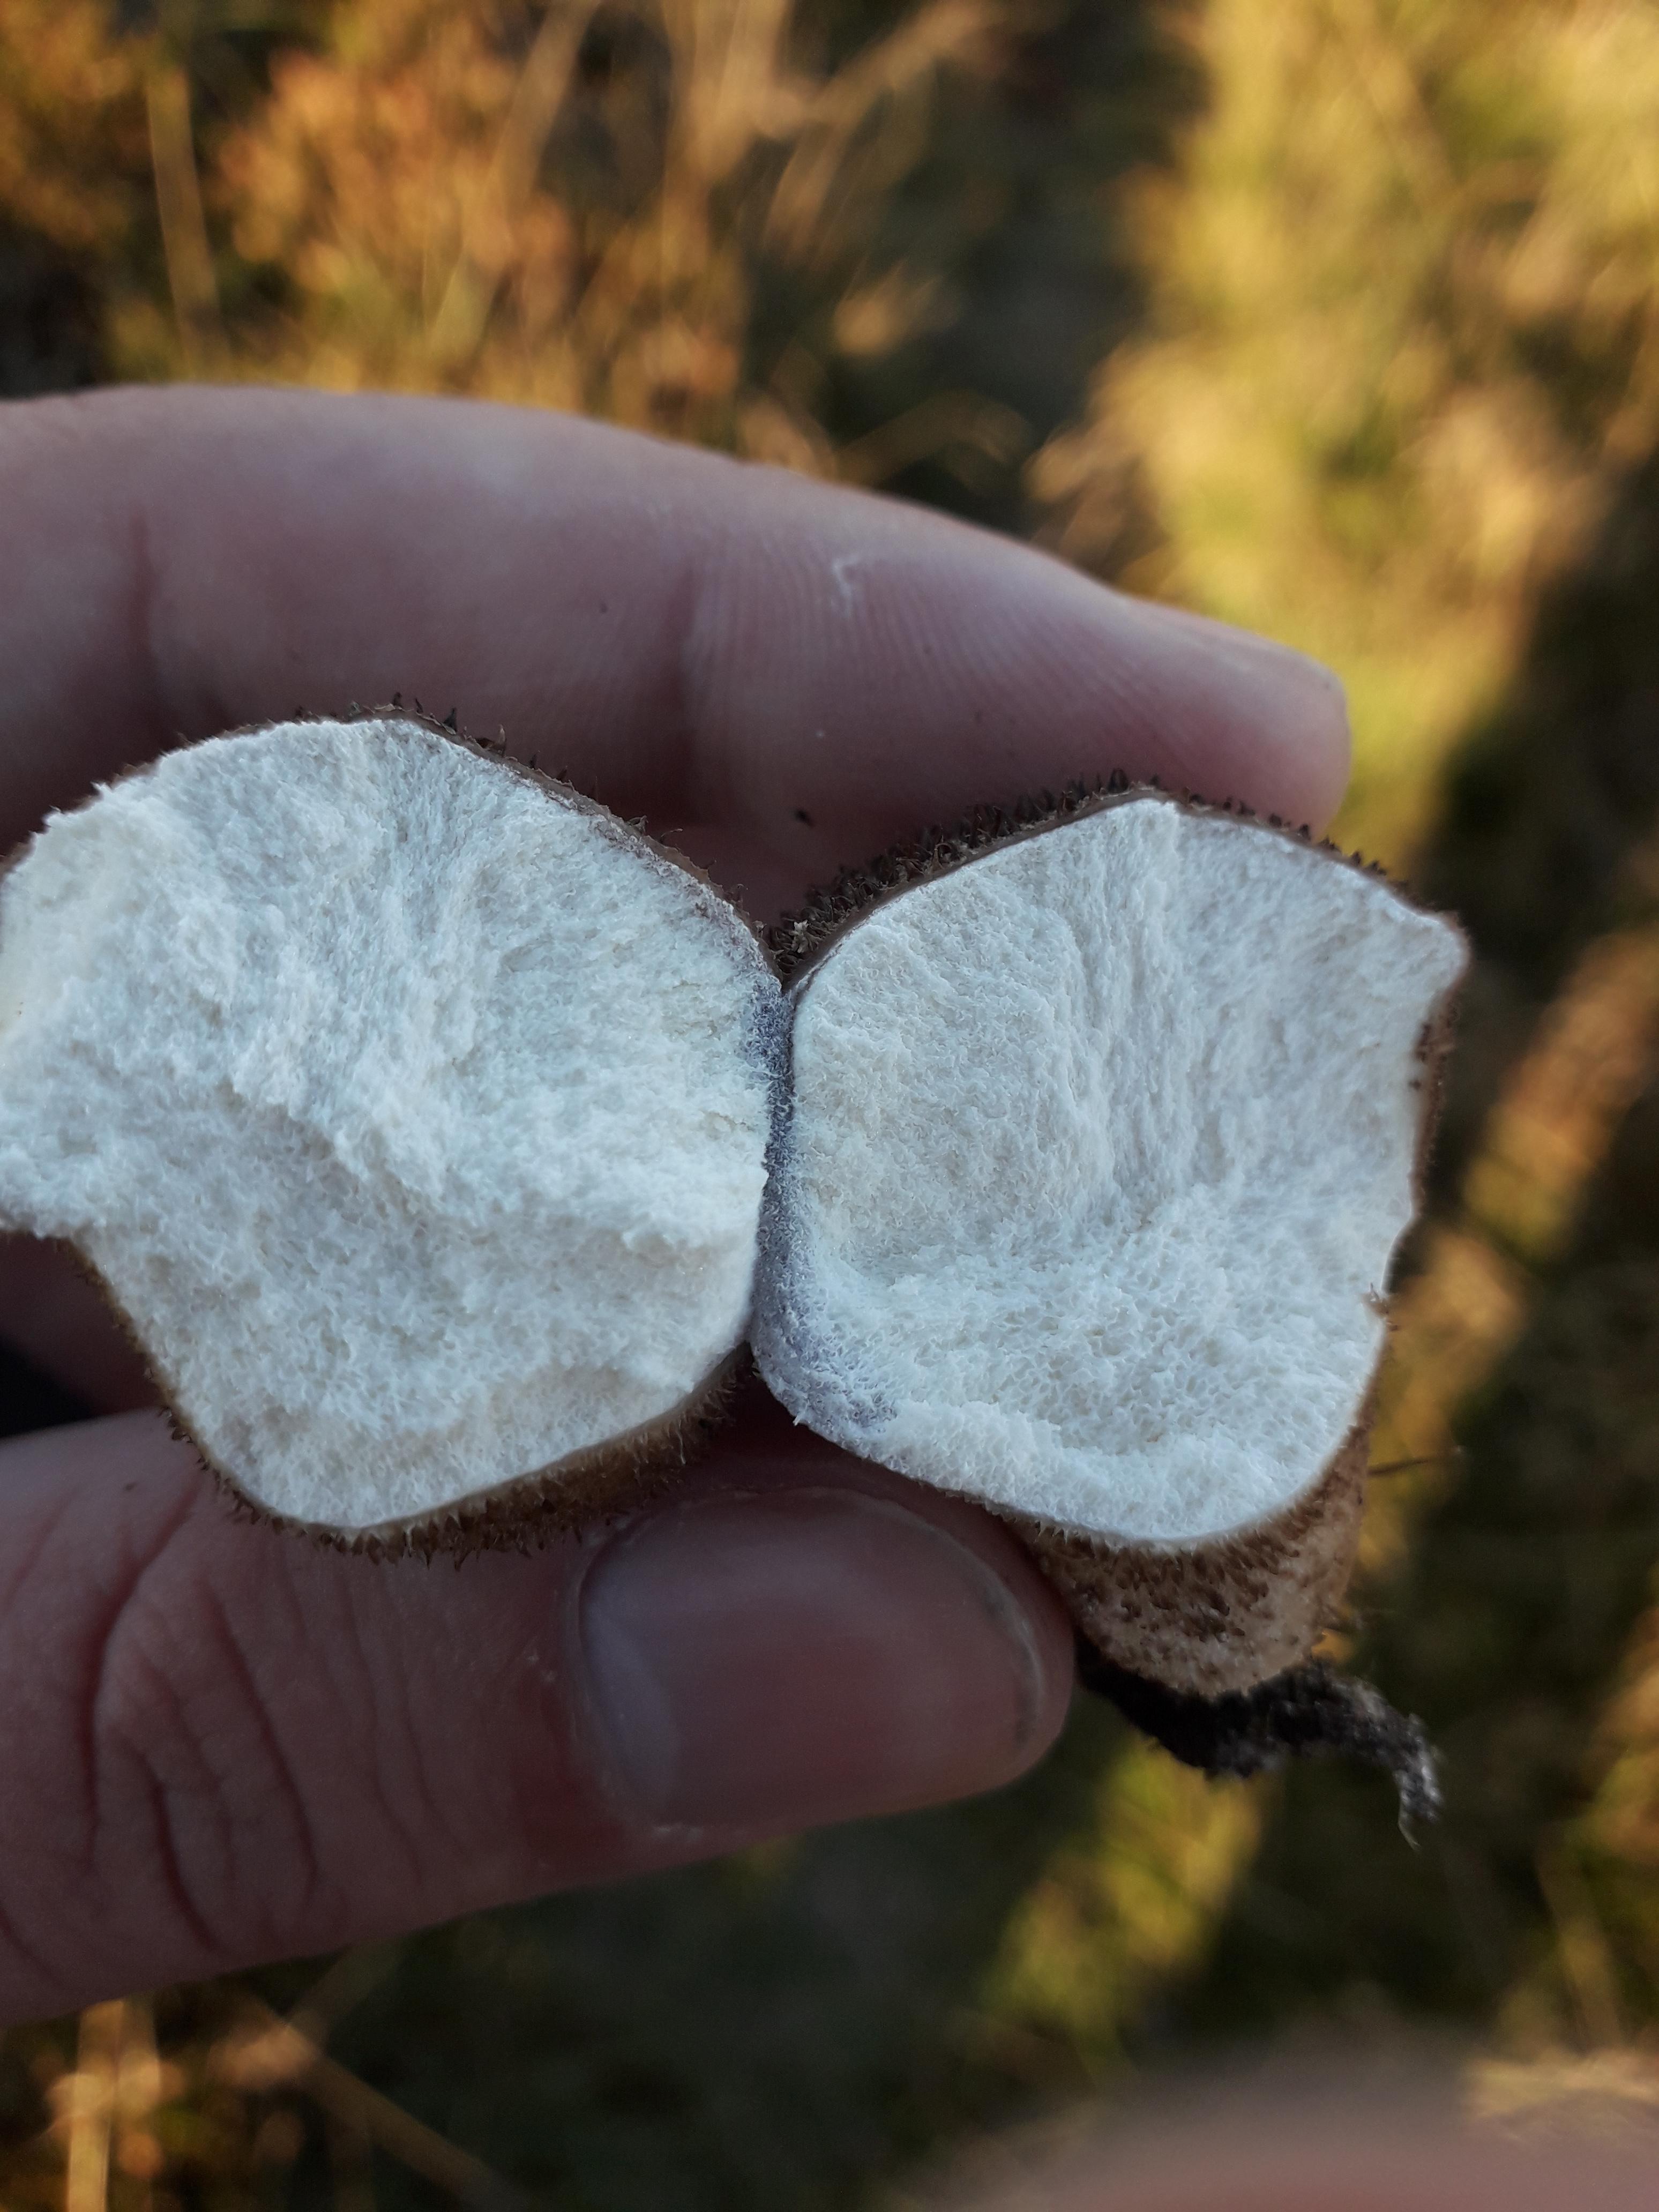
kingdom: Fungi
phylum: Basidiomycota
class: Agaricomycetes
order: Agaricales
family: Lycoperdaceae
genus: Lycoperdon
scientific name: Lycoperdon nigrescens
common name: sortagtig støvbold
